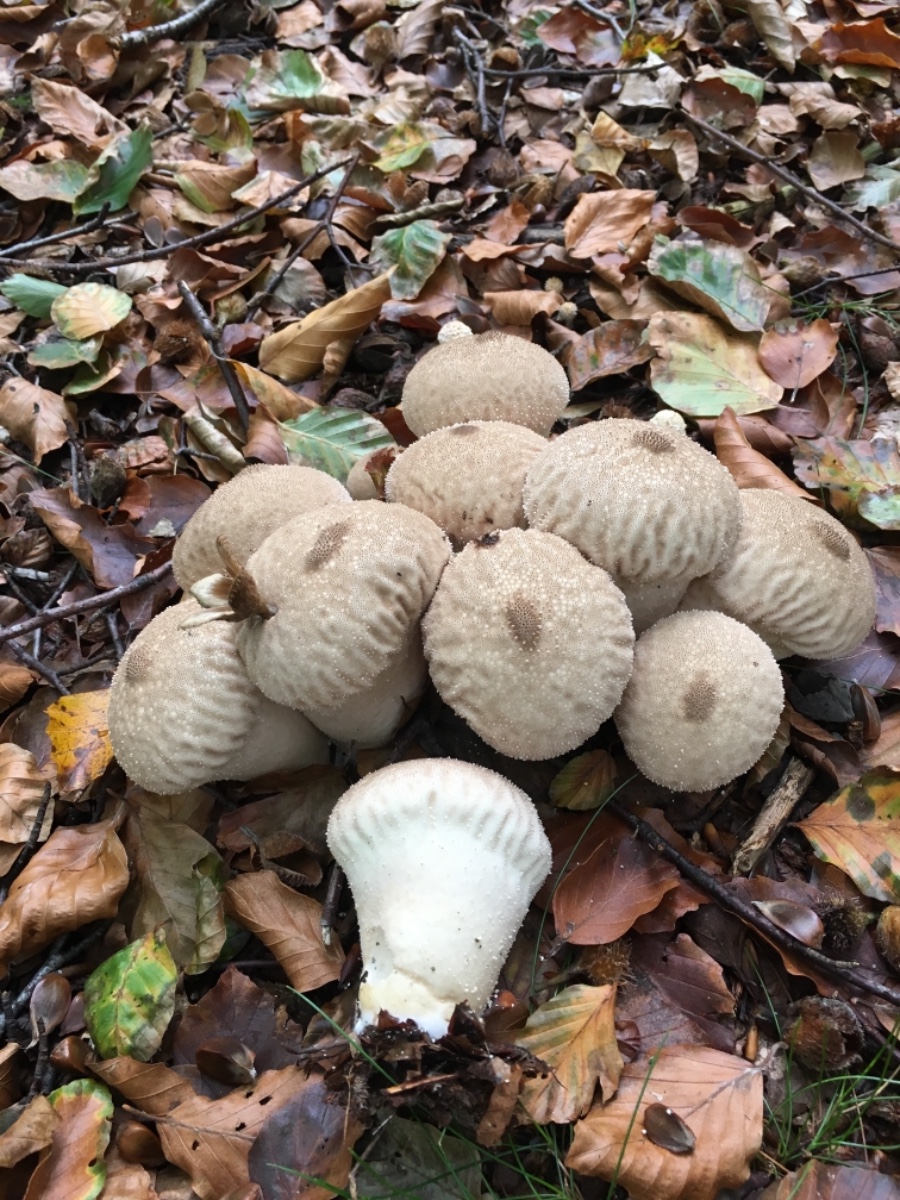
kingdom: Fungi
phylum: Basidiomycota
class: Agaricomycetes
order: Agaricales
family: Lycoperdaceae
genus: Lycoperdon
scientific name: Lycoperdon perlatum
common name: krystal-støvbold
